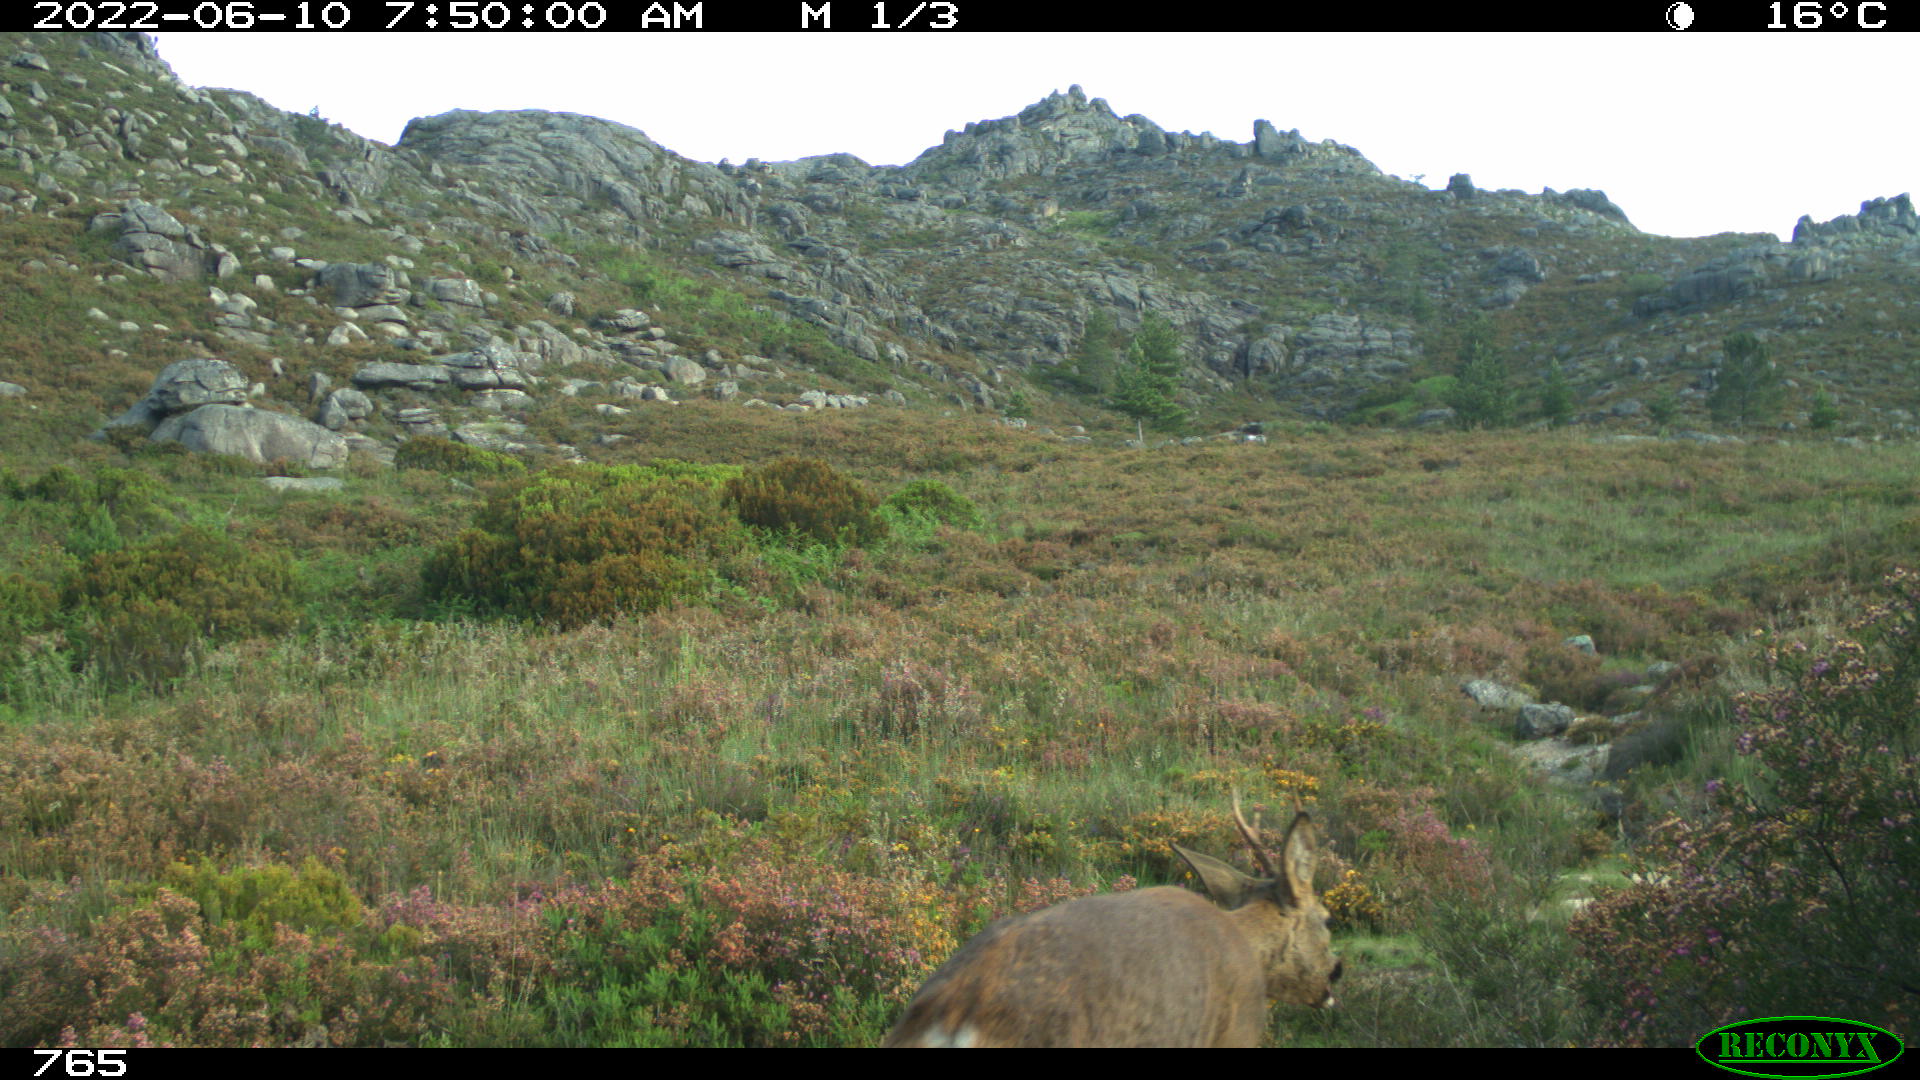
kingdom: Animalia
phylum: Chordata
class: Mammalia
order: Artiodactyla
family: Cervidae
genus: Capreolus
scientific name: Capreolus capreolus
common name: Western roe deer
